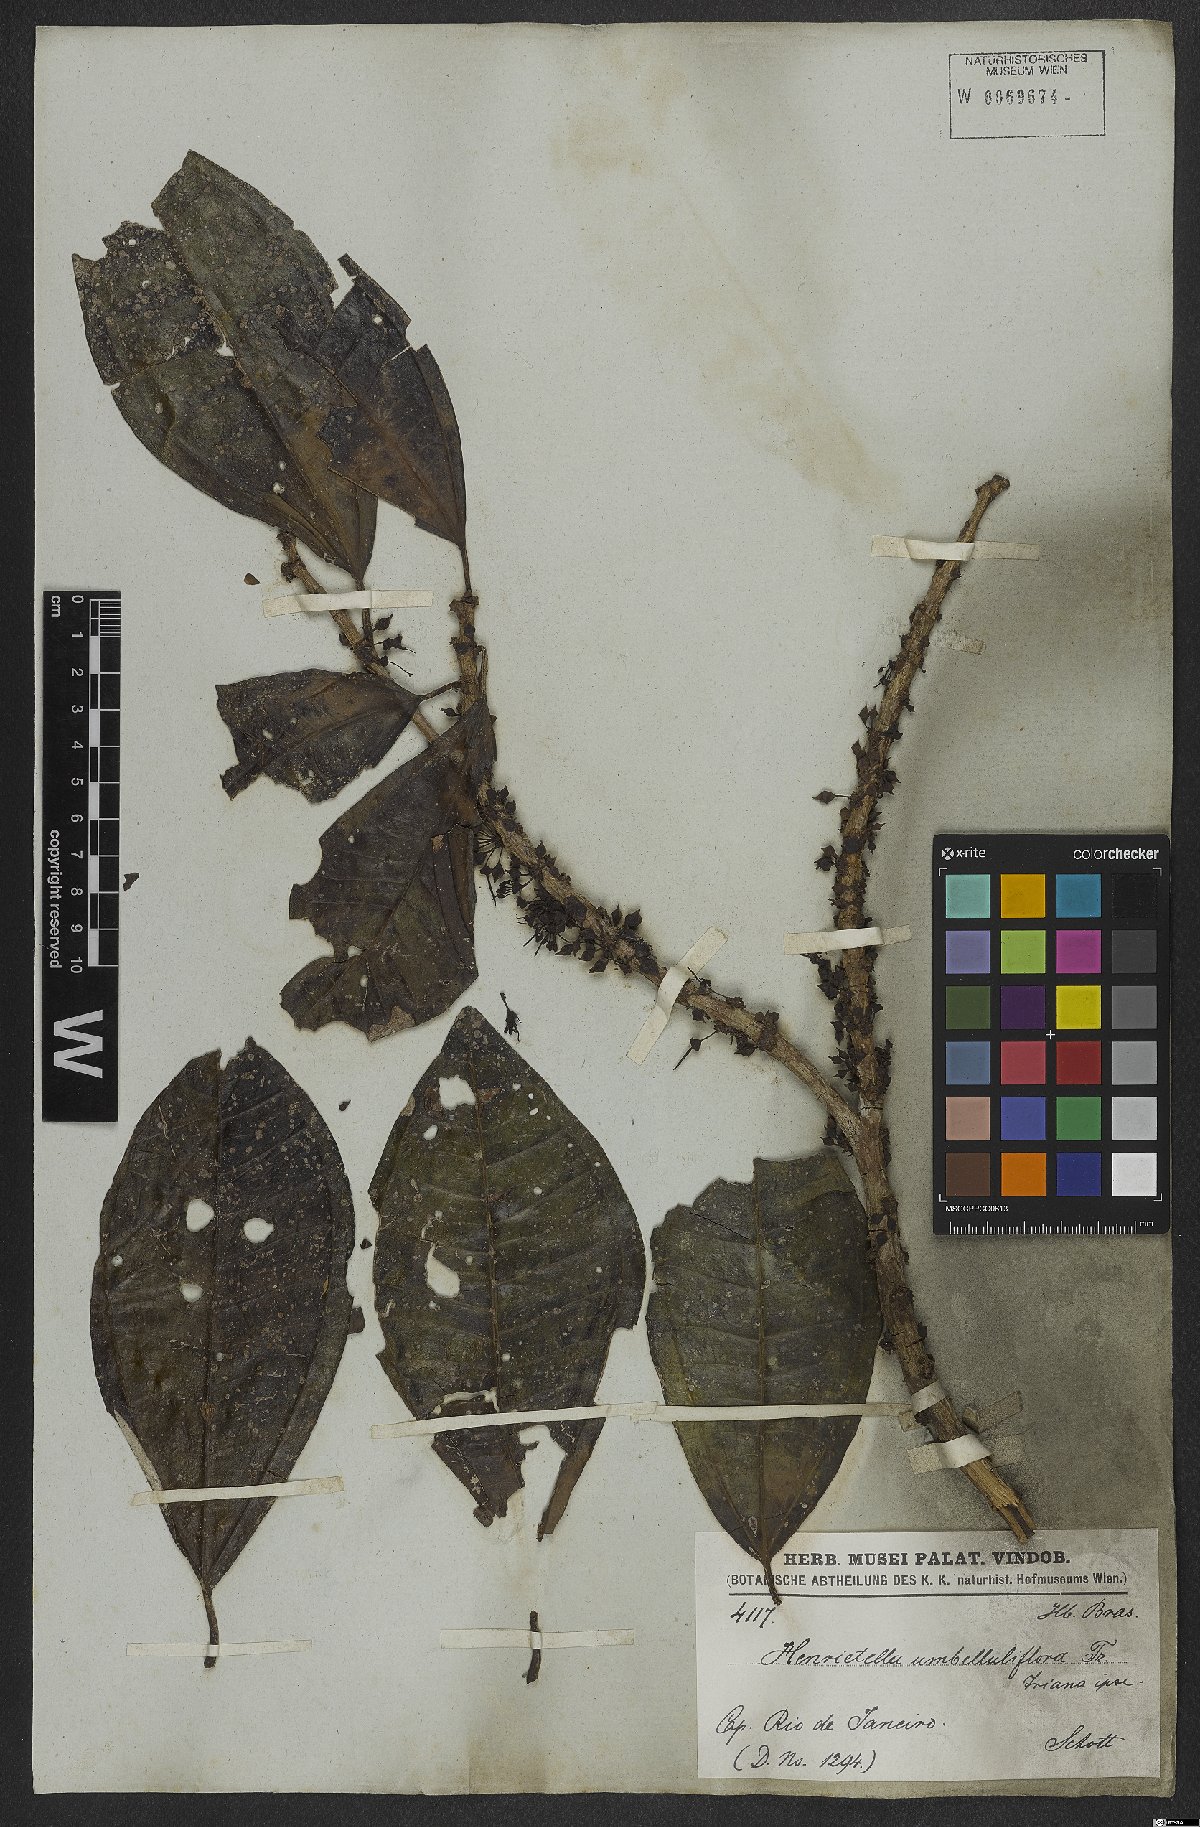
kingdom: Plantae
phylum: Tracheophyta
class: Magnoliopsida
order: Myrtales
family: Melastomataceae
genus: Henriettea
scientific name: Henriettea glabra
